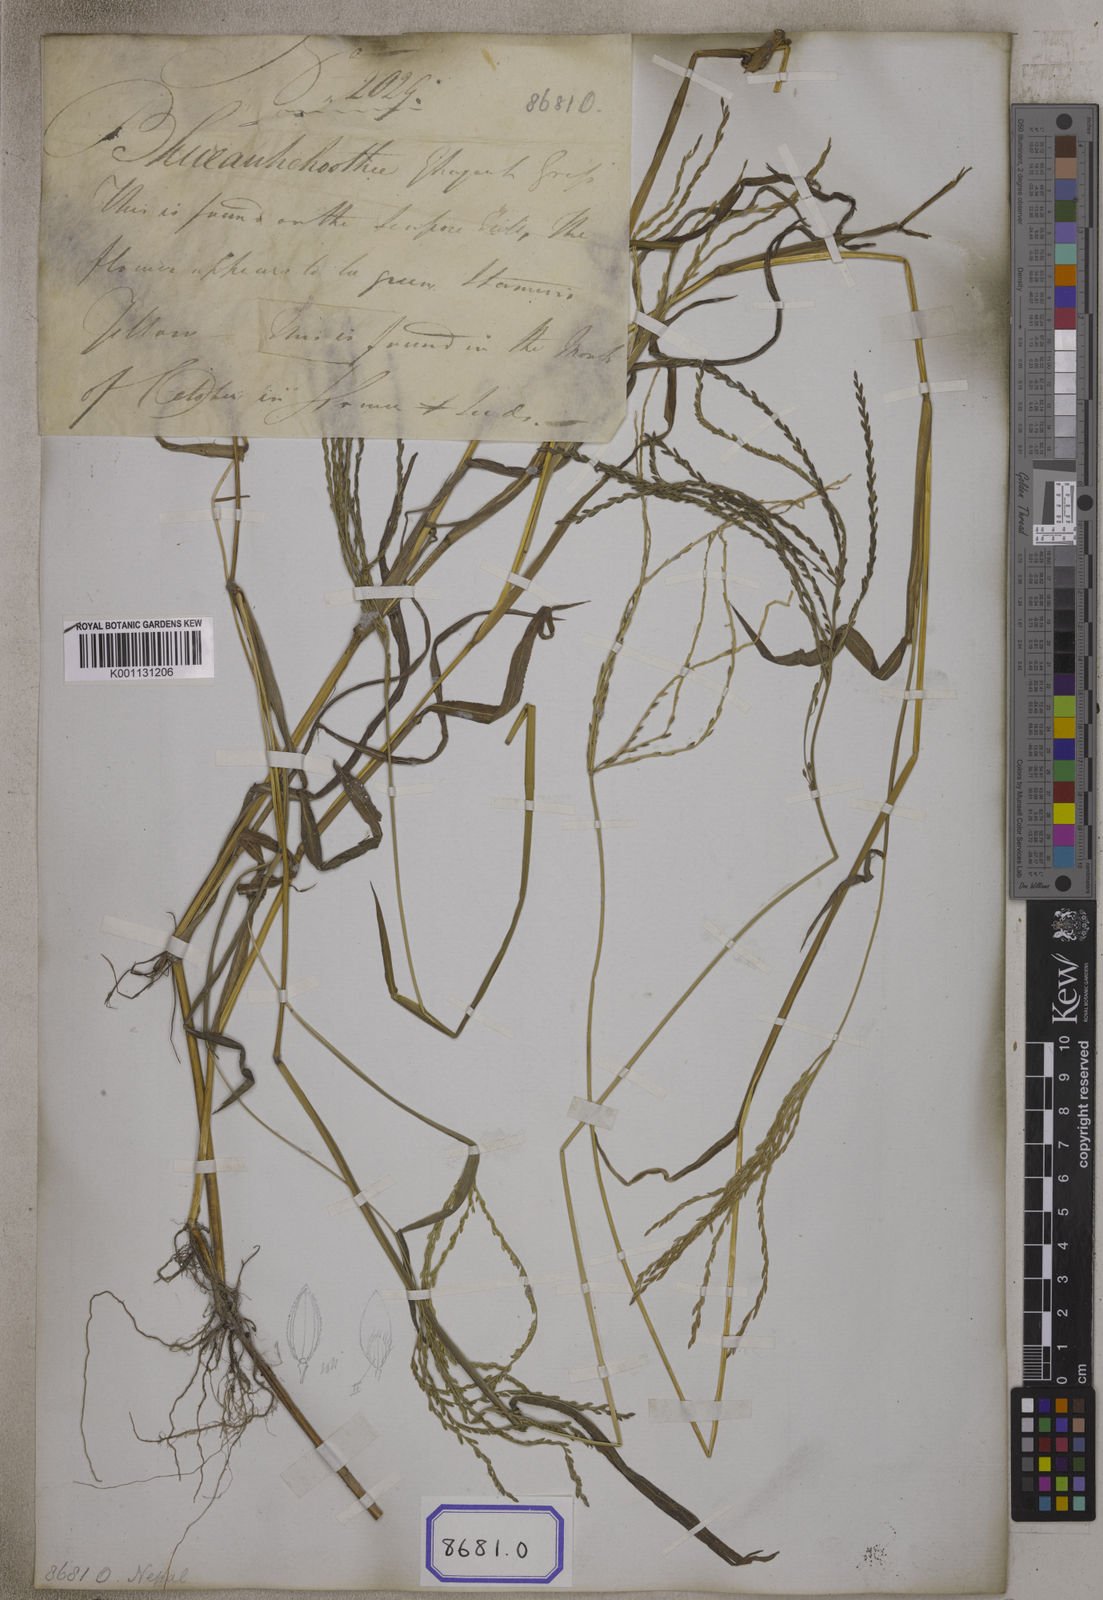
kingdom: Plantae
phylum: Tracheophyta
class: Liliopsida
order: Poales
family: Poaceae
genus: Digitaria
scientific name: Digitaria sanguinalis
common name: Hairy crabgrass
